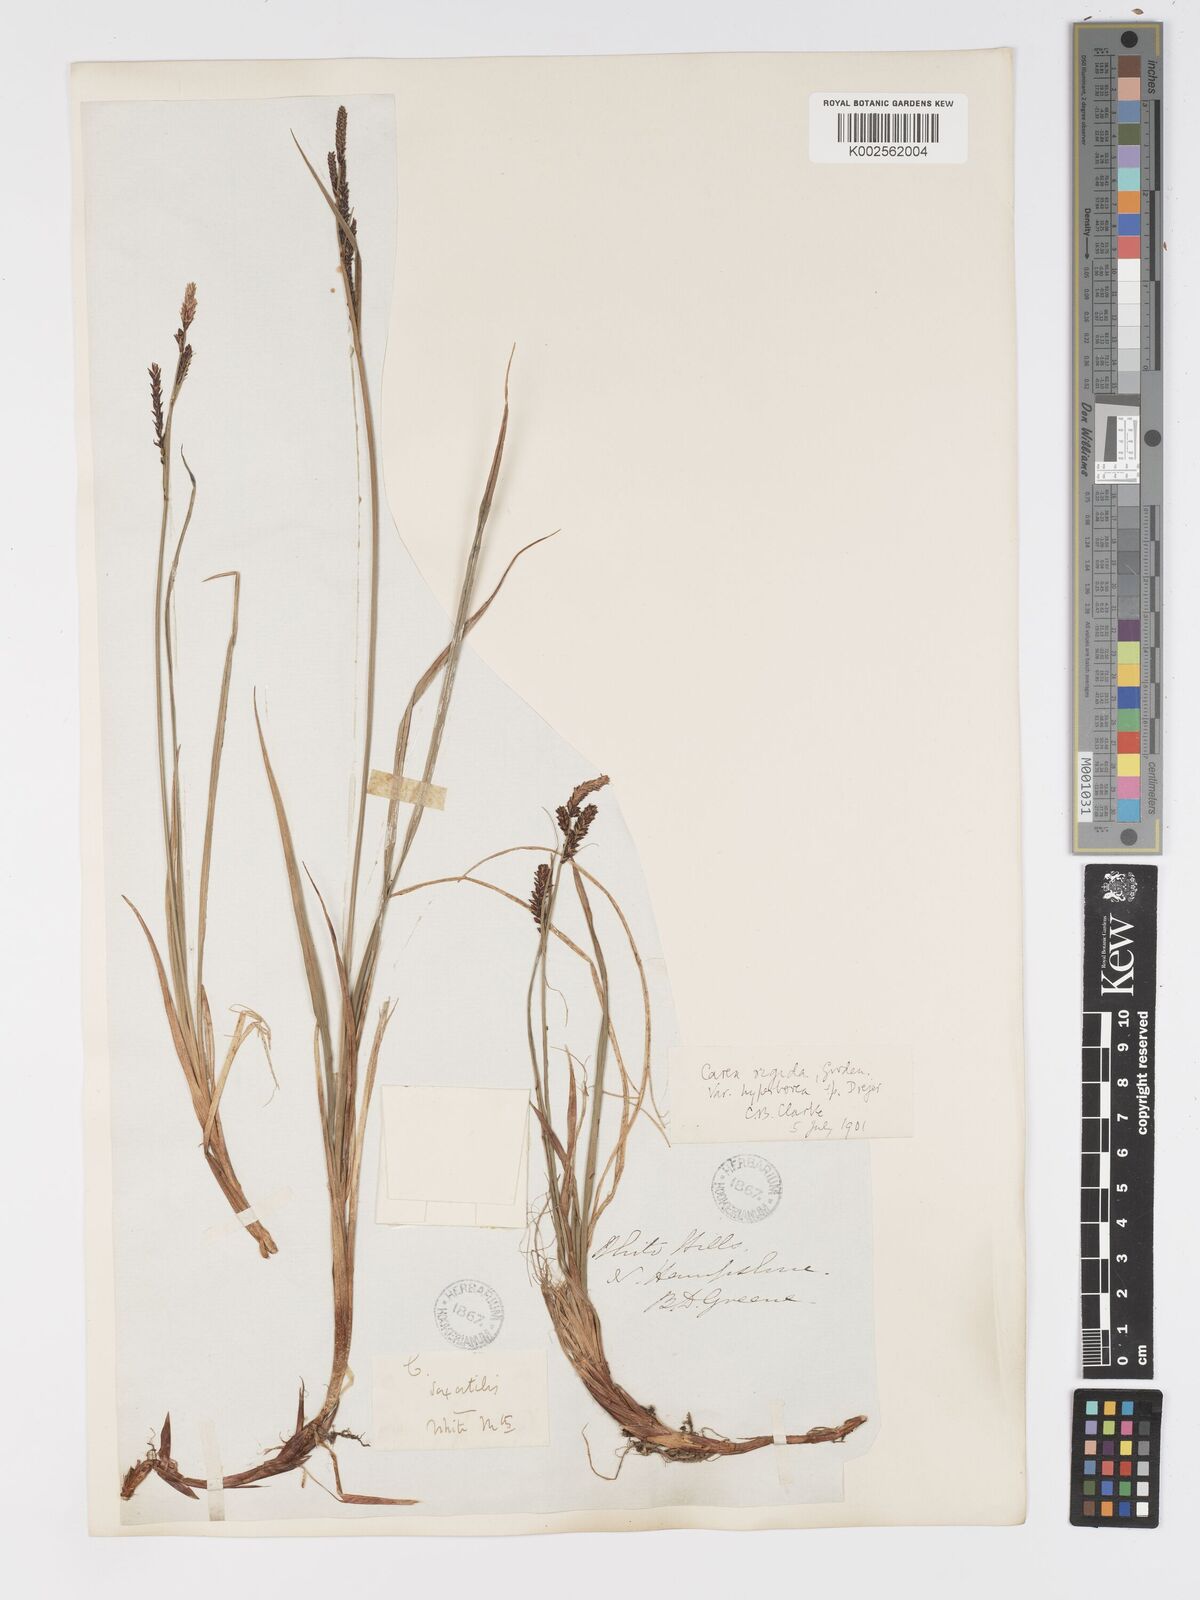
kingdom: Plantae
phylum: Tracheophyta
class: Liliopsida
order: Poales
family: Cyperaceae
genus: Carex
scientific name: Carex bigelowii
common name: Stiff sedge
